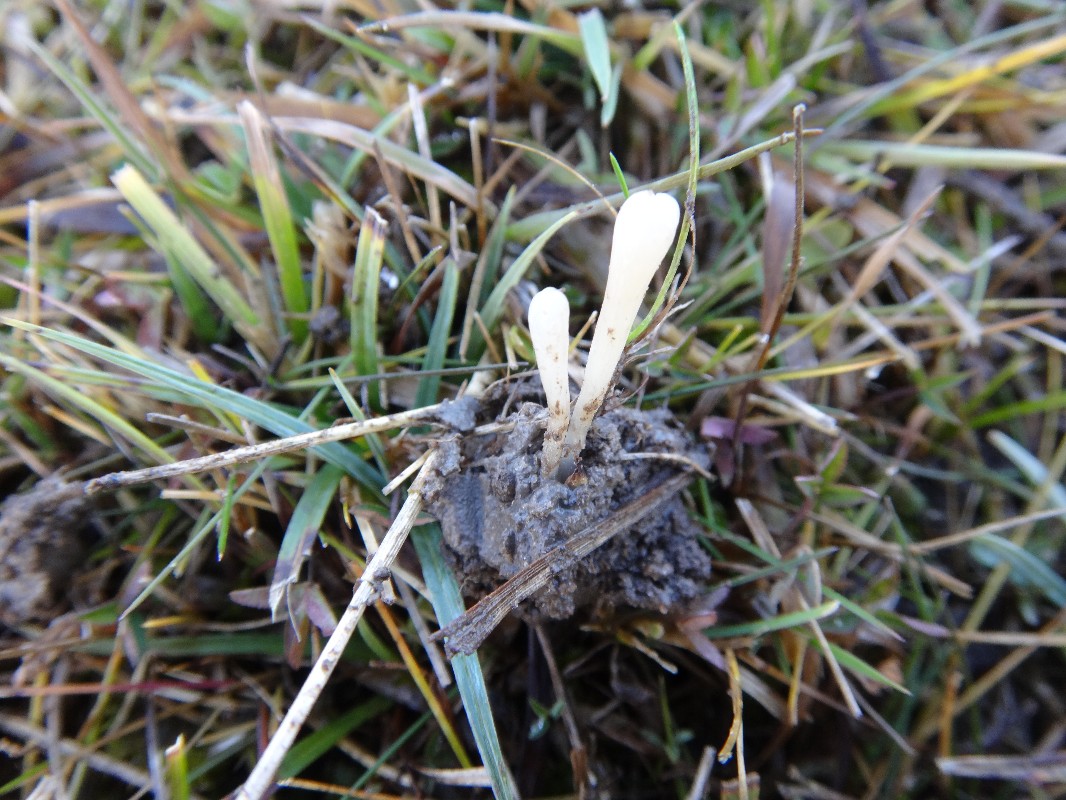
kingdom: Fungi
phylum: Basidiomycota
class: Agaricomycetes
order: Agaricales
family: Clavariaceae
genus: Clavaria
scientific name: Clavaria falcata
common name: hvid køllesvamp
